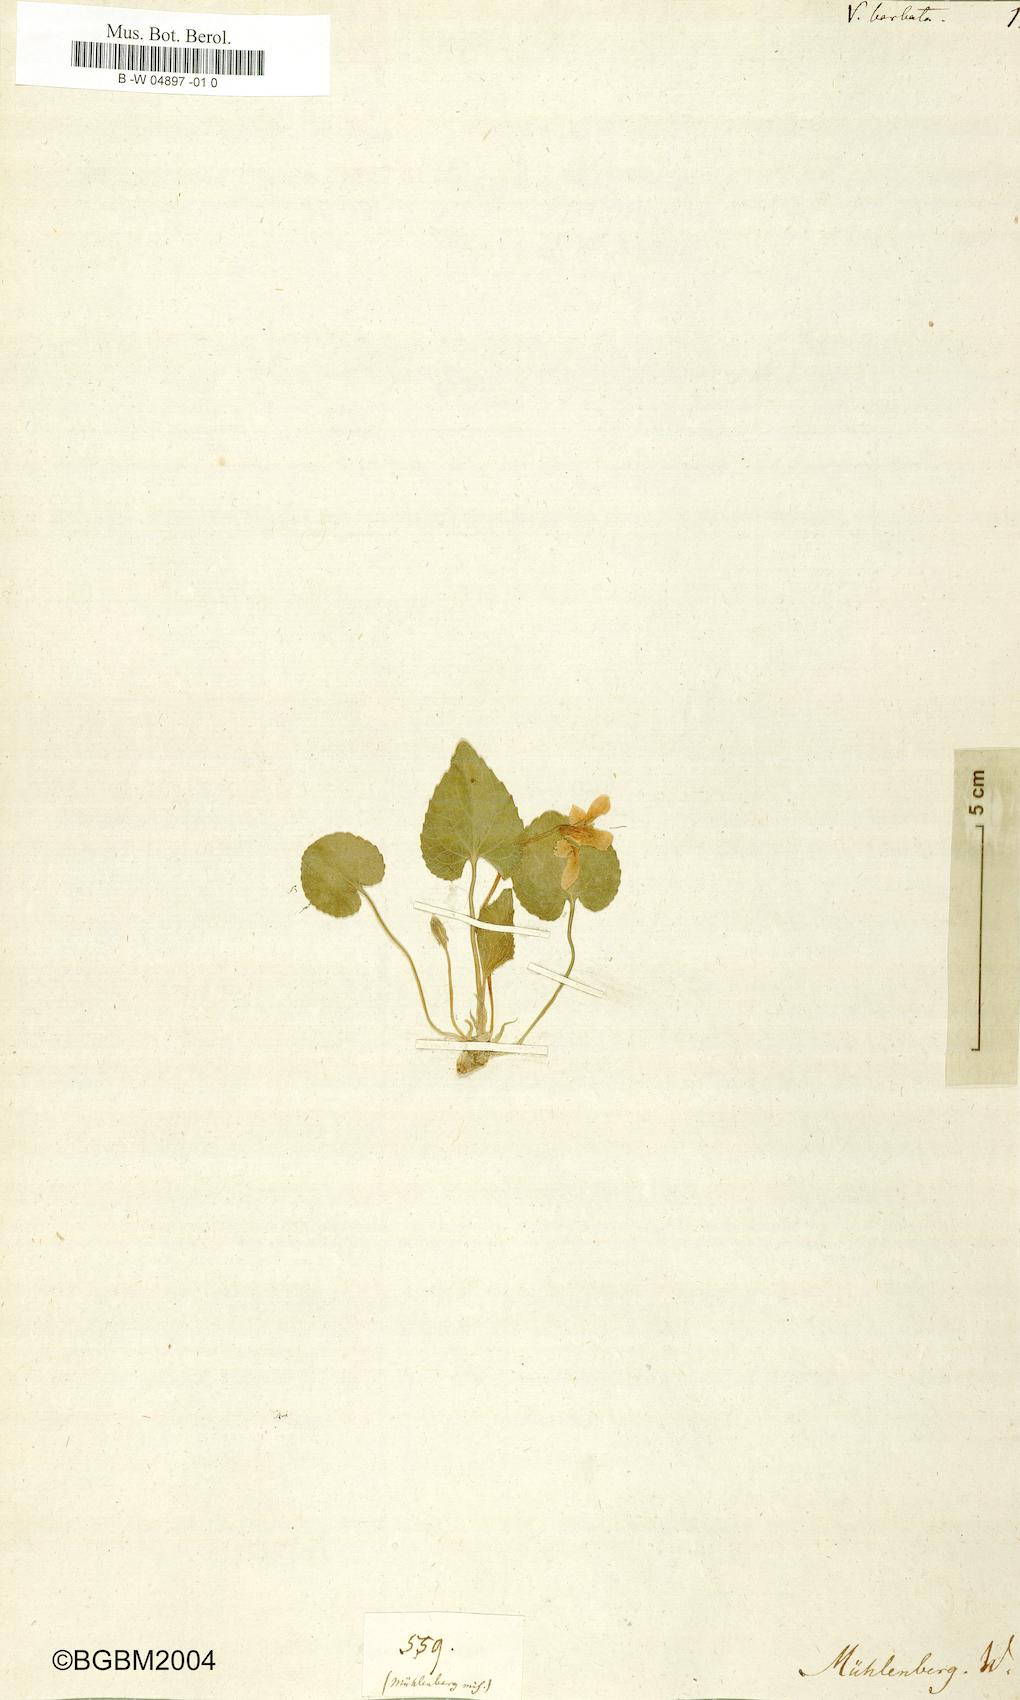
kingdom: Plantae
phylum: Tracheophyta
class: Magnoliopsida
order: Malpighiales
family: Violaceae
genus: Viola
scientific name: Viola cucullata
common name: Marsh blue violet
